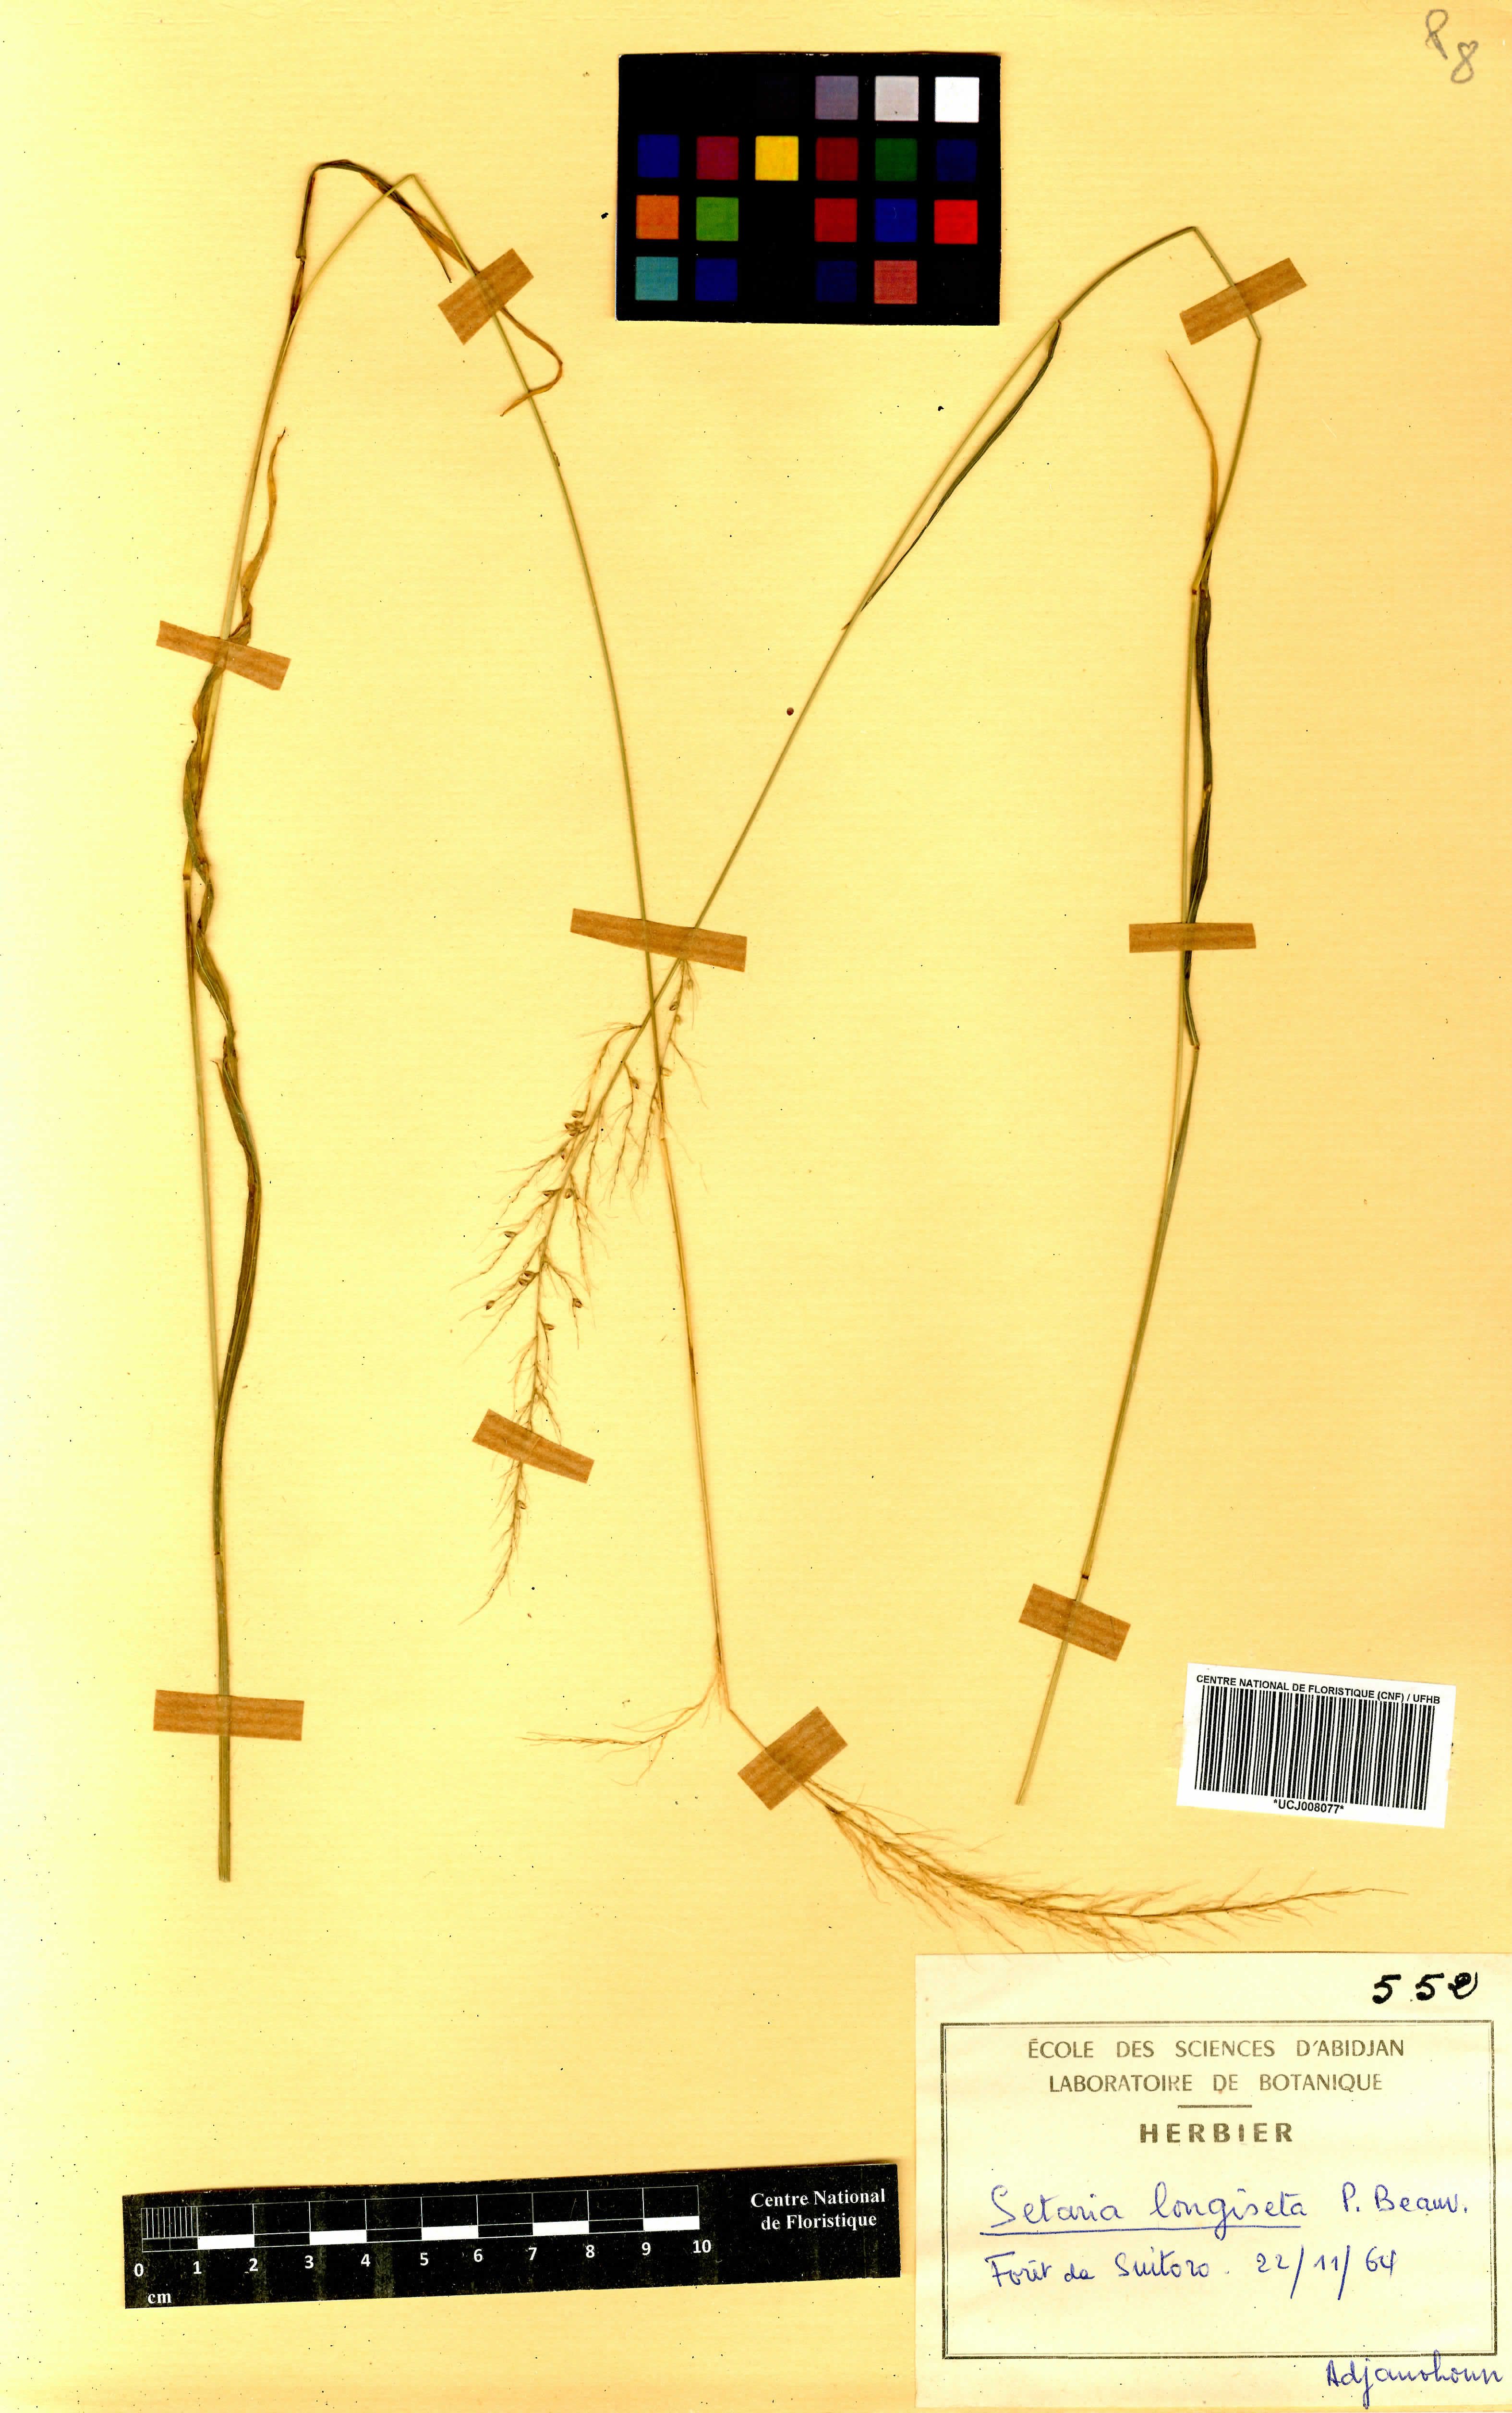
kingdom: Plantae
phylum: Tracheophyta
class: Liliopsida
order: Poales
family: Poaceae
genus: Setaria
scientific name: Setaria longiseta
